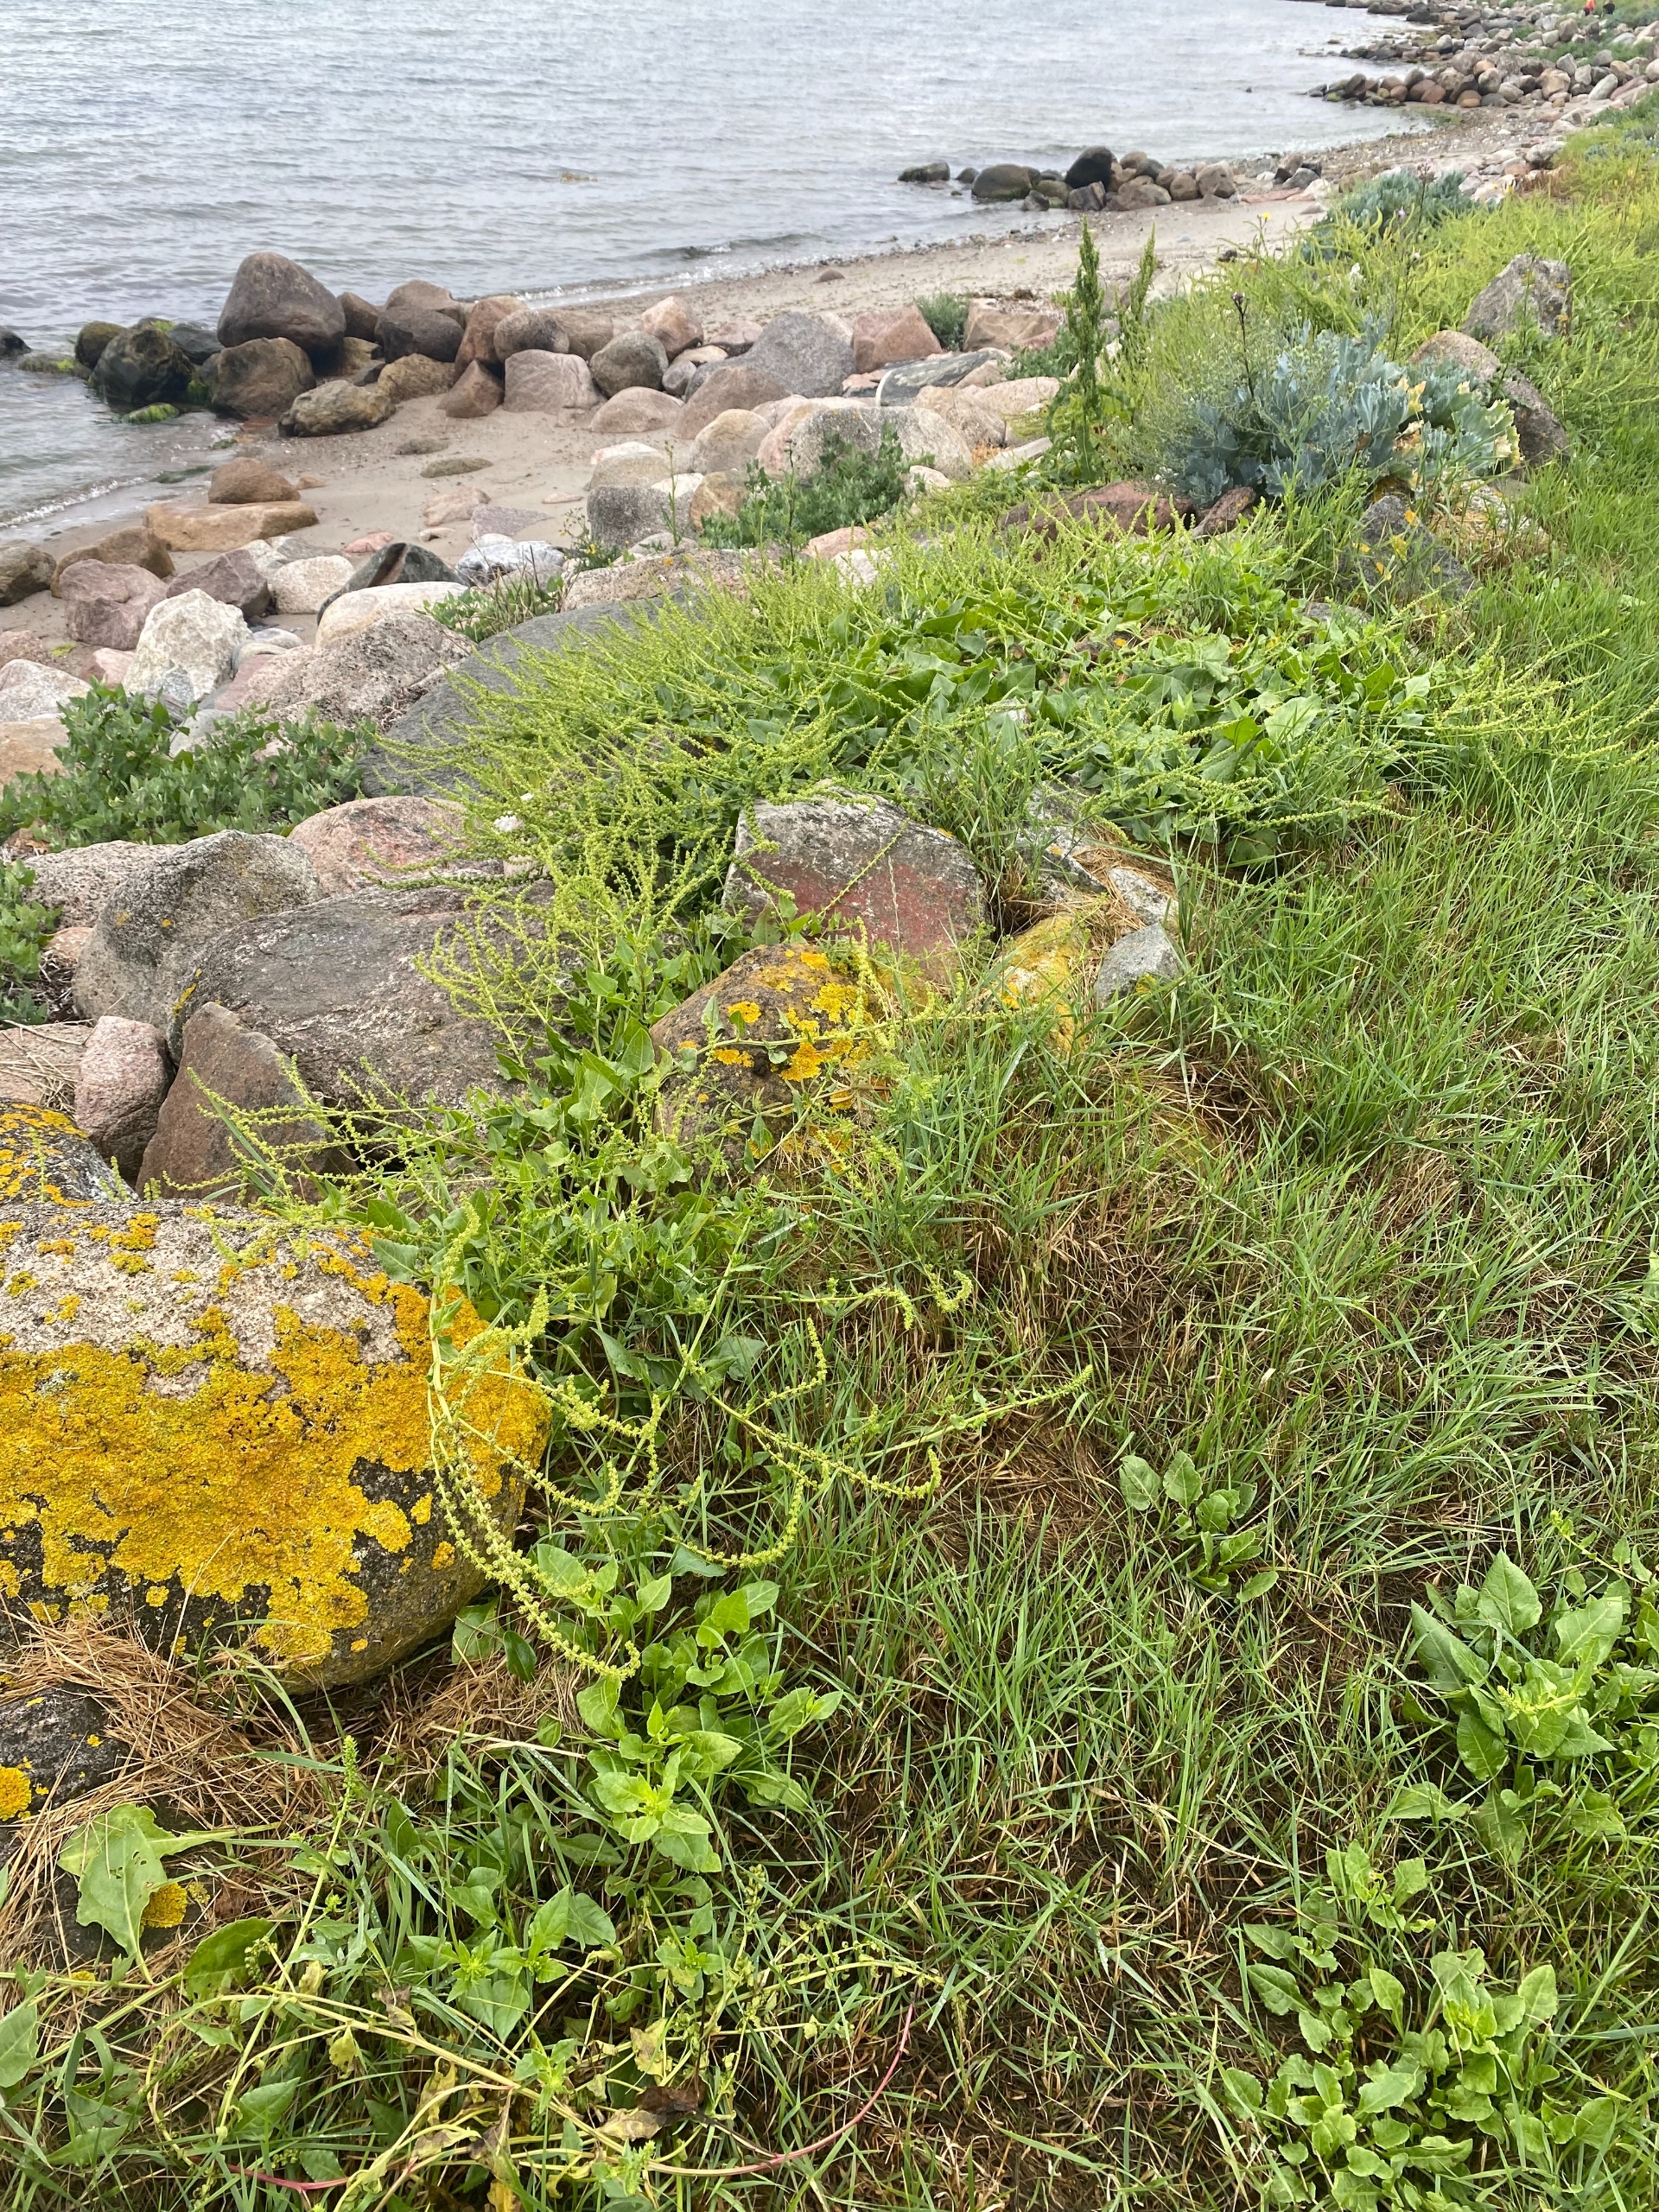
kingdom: Plantae
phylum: Tracheophyta
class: Magnoliopsida
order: Caryophyllales
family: Amaranthaceae
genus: Beta
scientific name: Beta maritima
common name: Strand-bede
